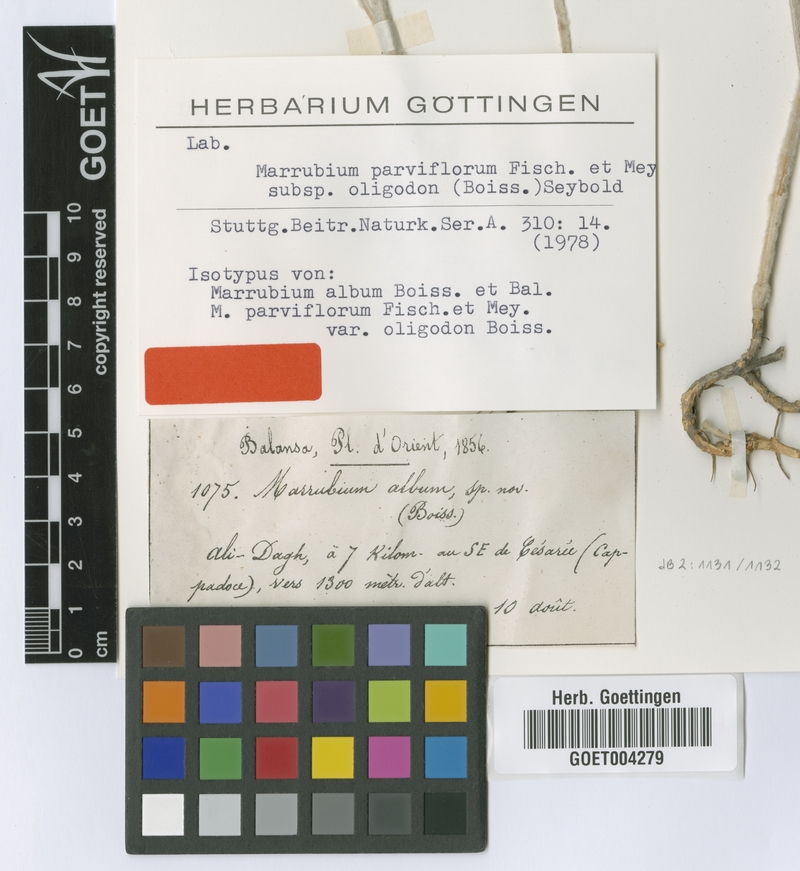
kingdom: Plantae
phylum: Tracheophyta
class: Magnoliopsida
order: Lamiales
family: Lamiaceae
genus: Marrubium
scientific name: Marrubium parviflorum
